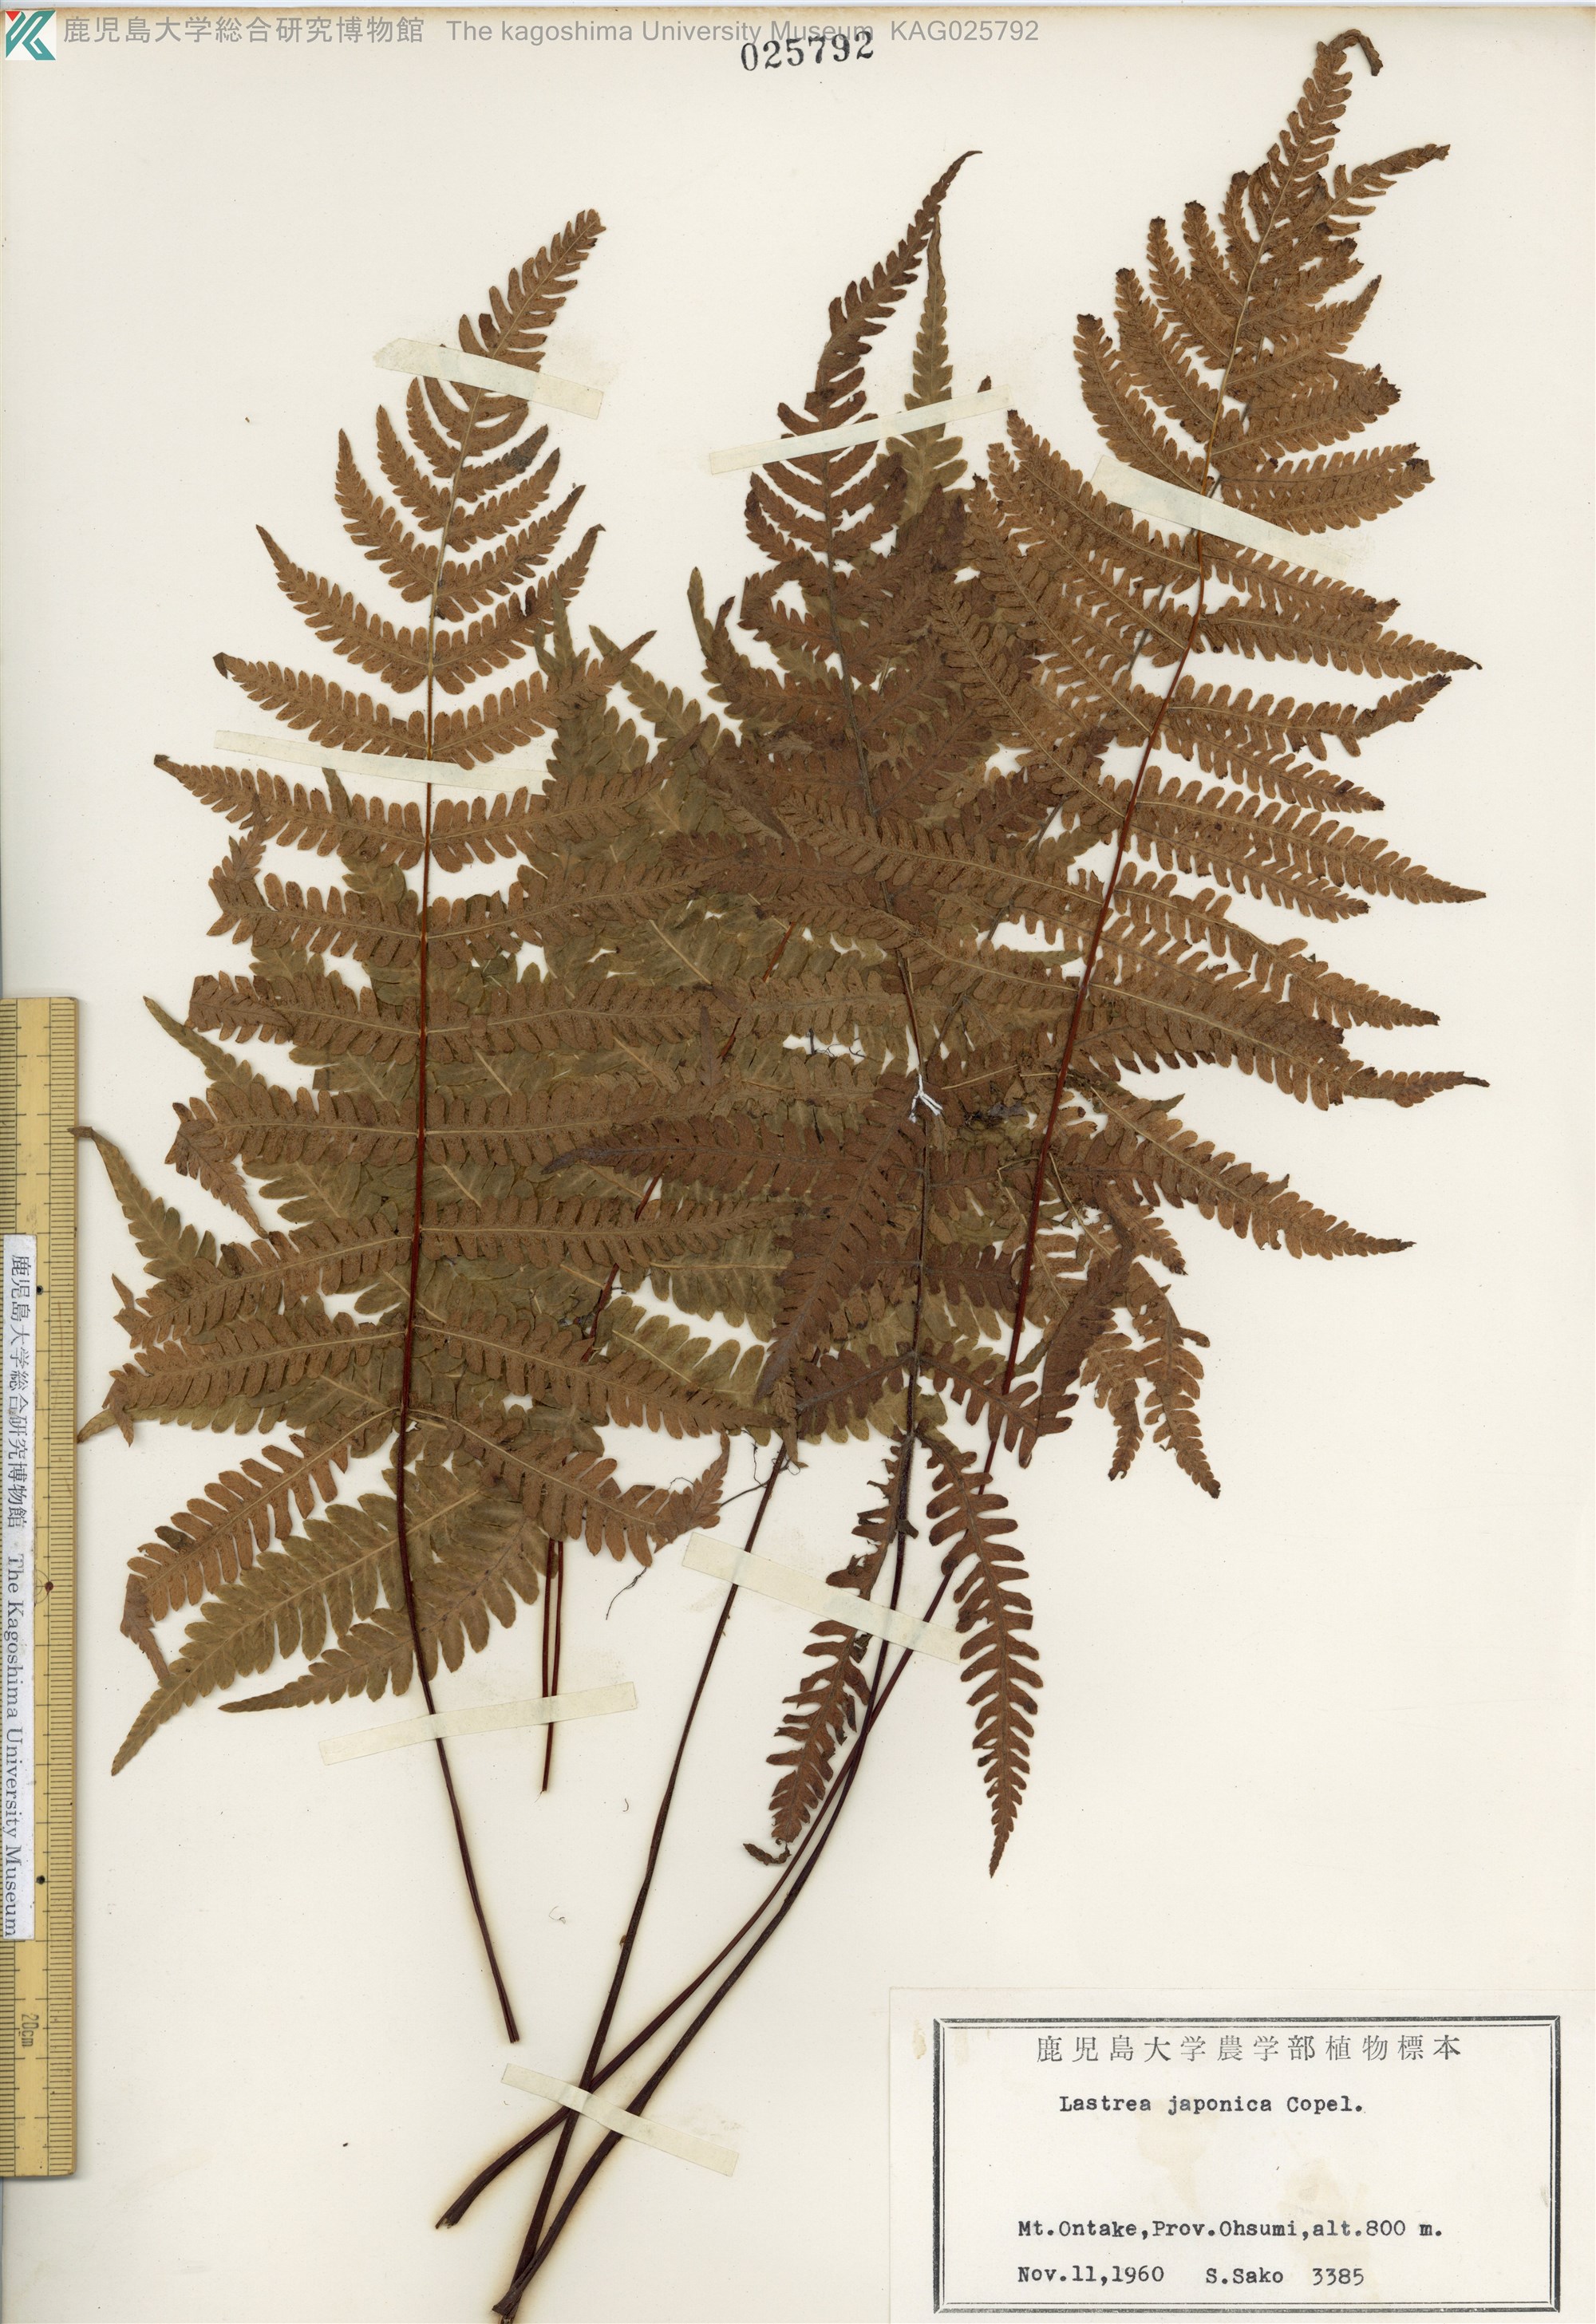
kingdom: Plantae
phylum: Tracheophyta
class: Polypodiopsida
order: Polypodiales
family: Thelypteridaceae
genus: Coryphopteris
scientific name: Coryphopteris japonica
